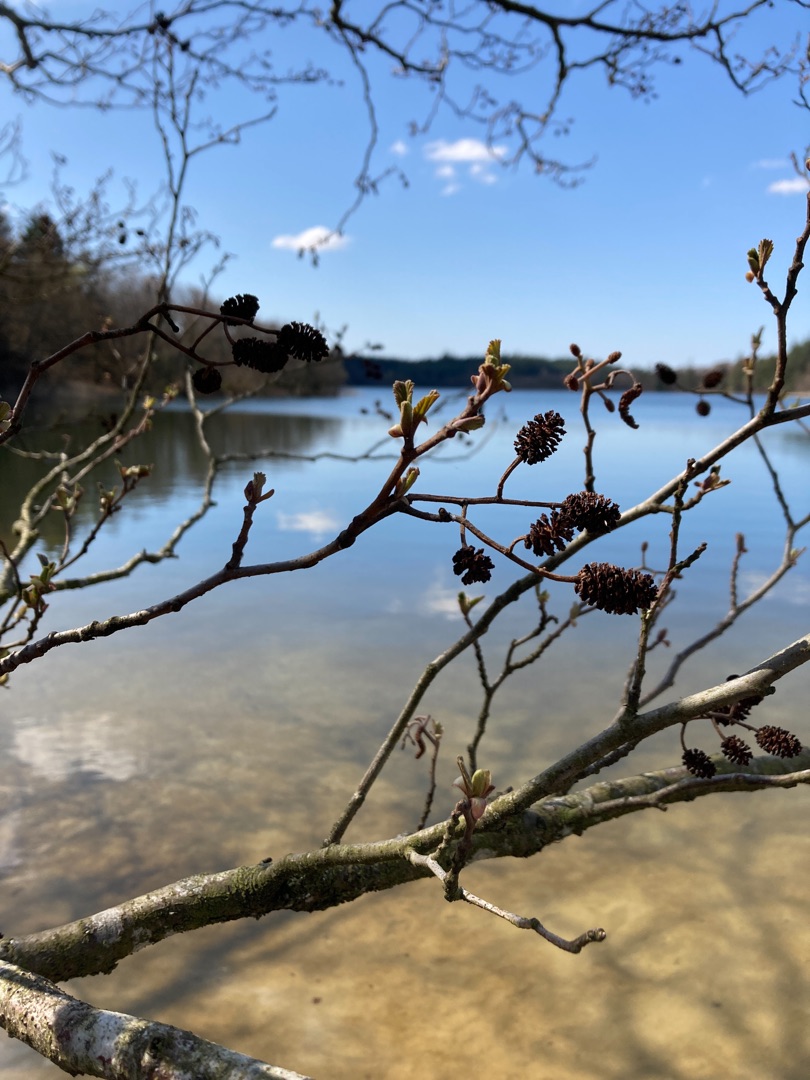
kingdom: Plantae
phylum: Tracheophyta
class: Magnoliopsida
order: Fagales
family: Betulaceae
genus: Alnus
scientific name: Alnus glutinosa
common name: Rød-el
